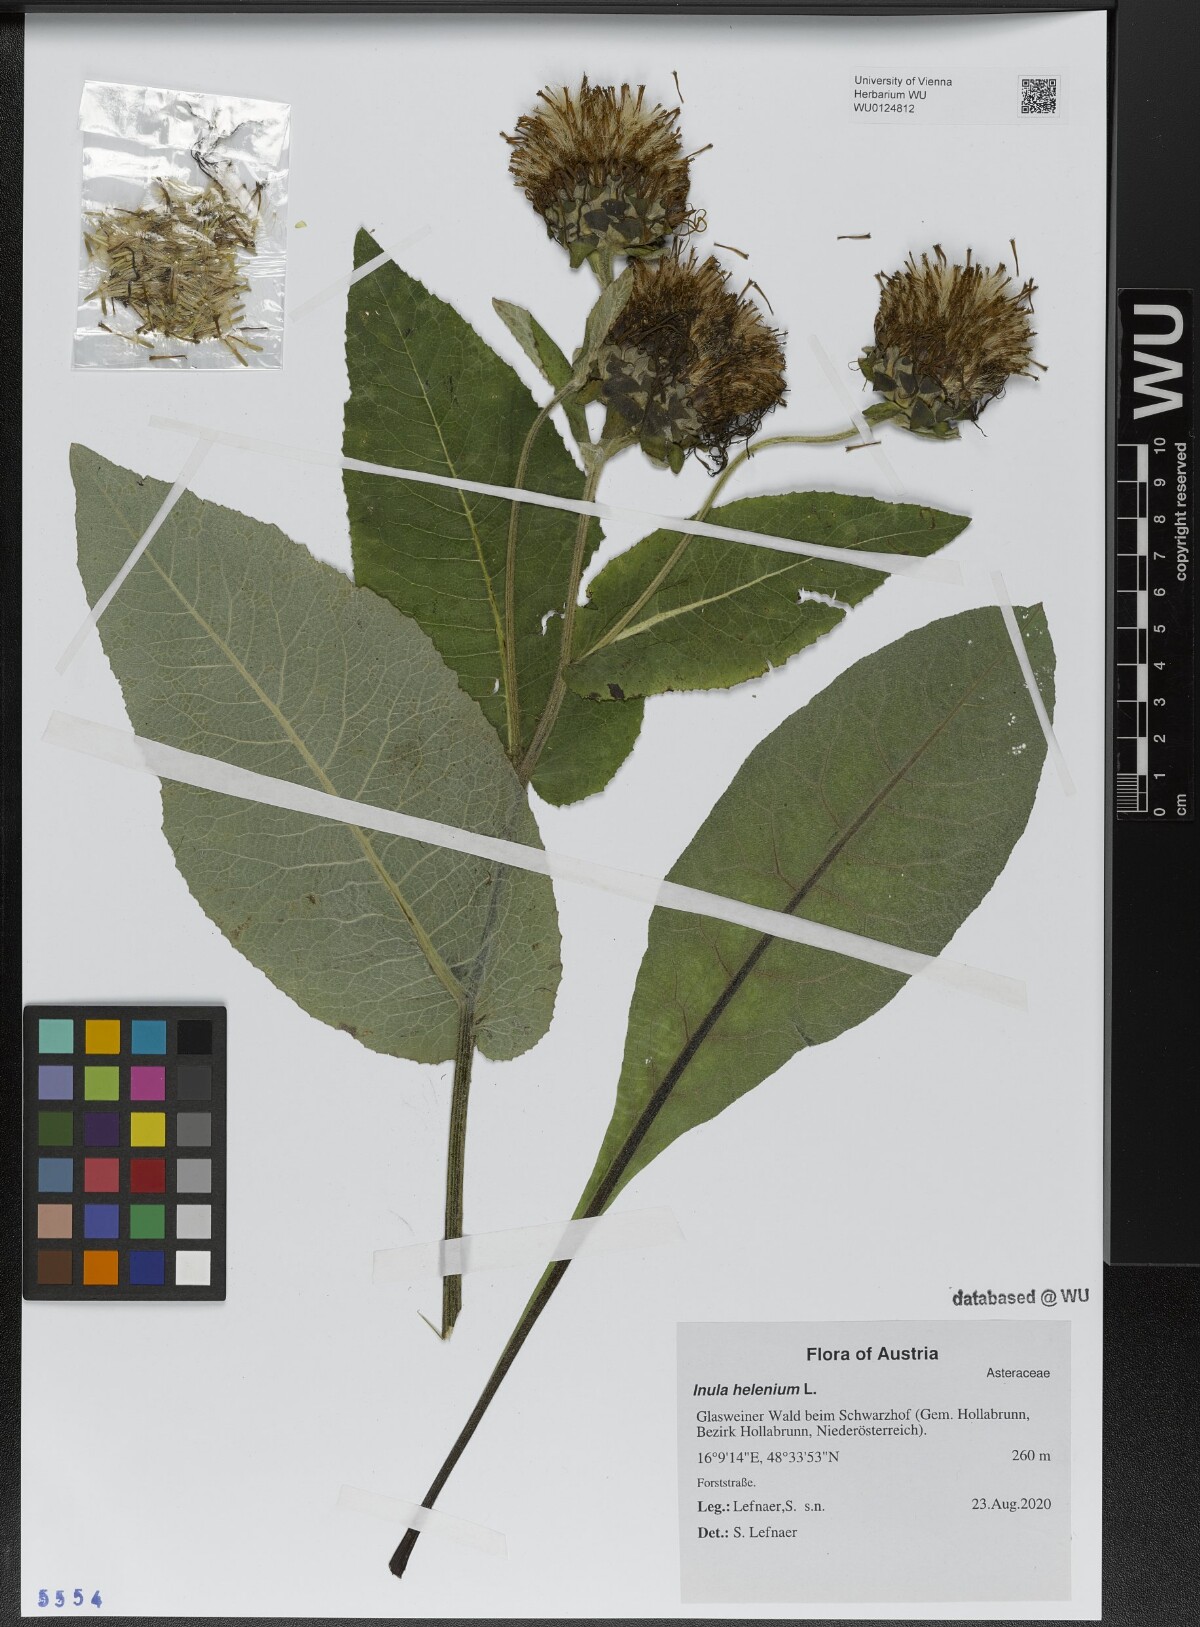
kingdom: Plantae
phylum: Tracheophyta
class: Magnoliopsida
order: Asterales
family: Asteraceae
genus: Inula
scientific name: Inula helenium
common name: Elecampane
